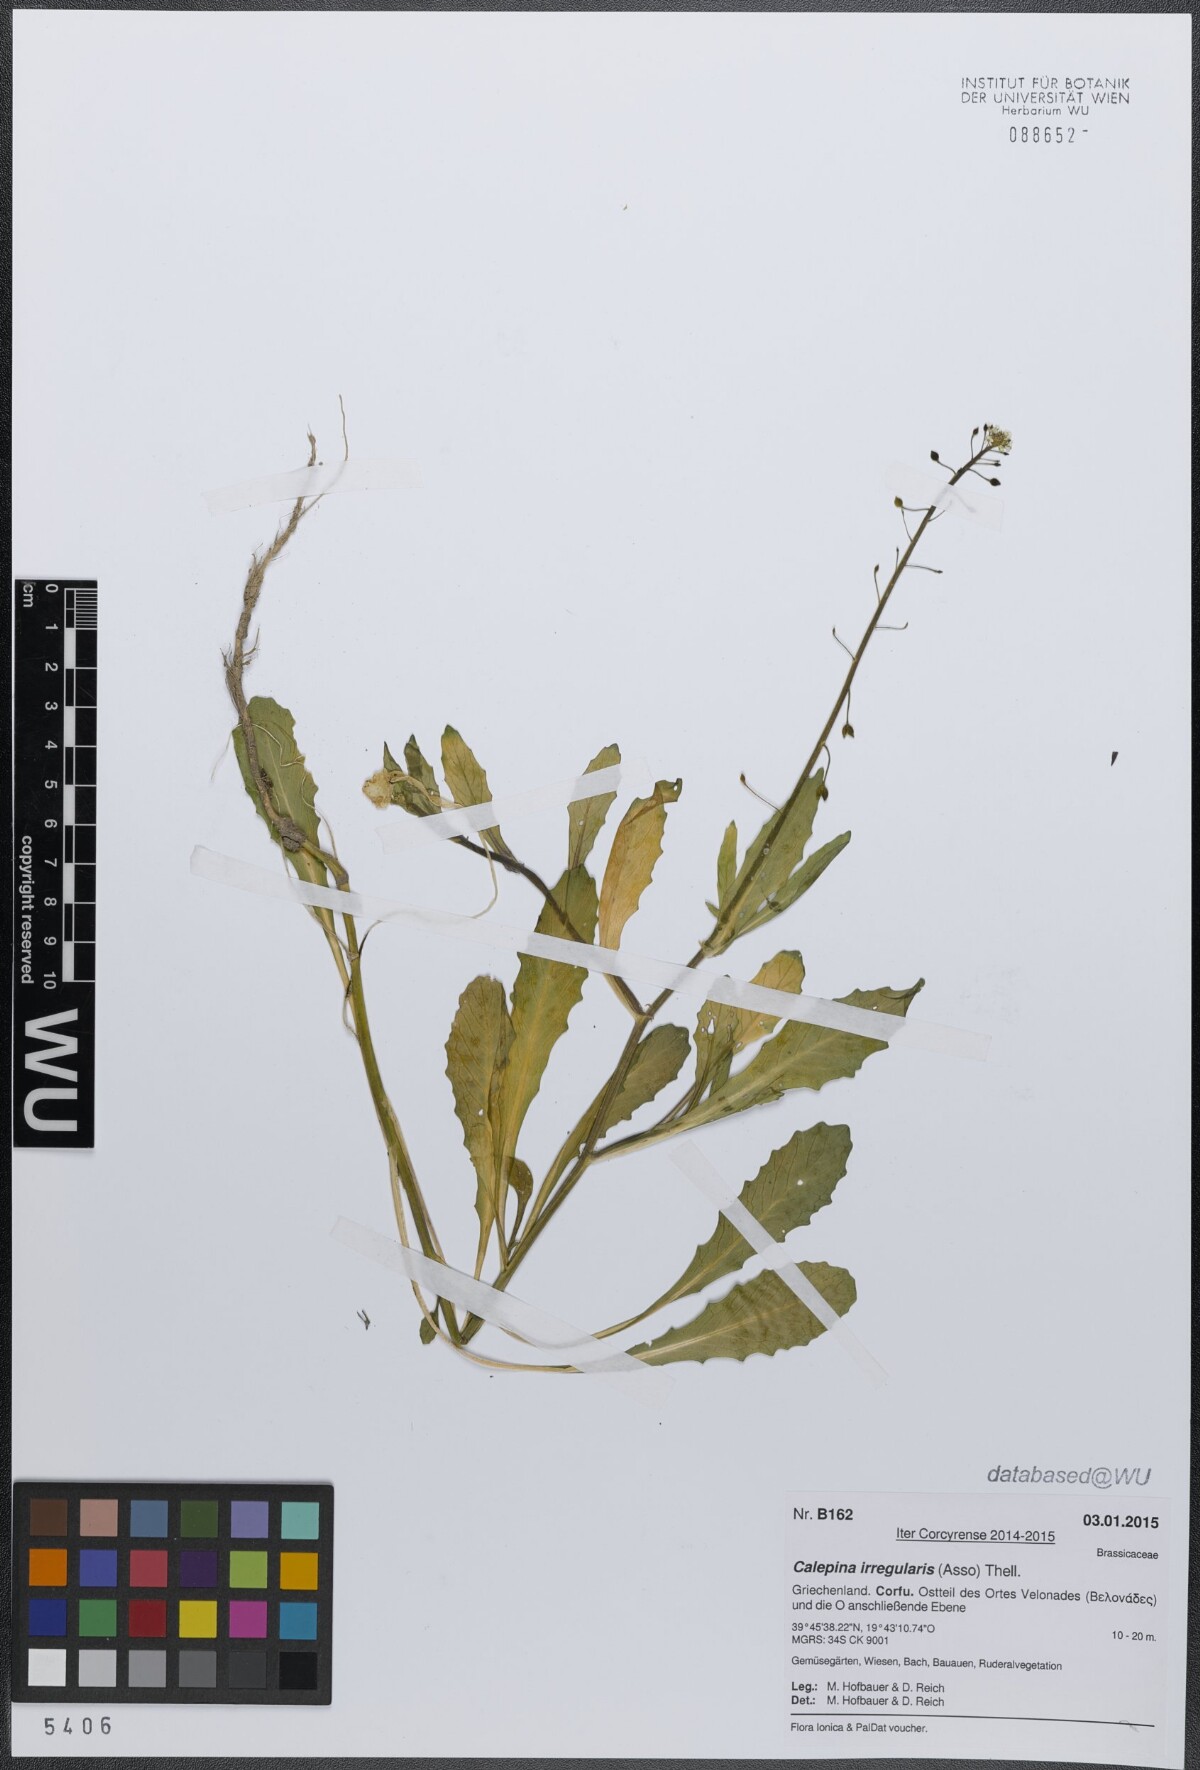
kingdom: Plantae
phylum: Tracheophyta
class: Magnoliopsida
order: Brassicales
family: Brassicaceae
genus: Calepina
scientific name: Calepina irregularis
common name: White ballmustard
